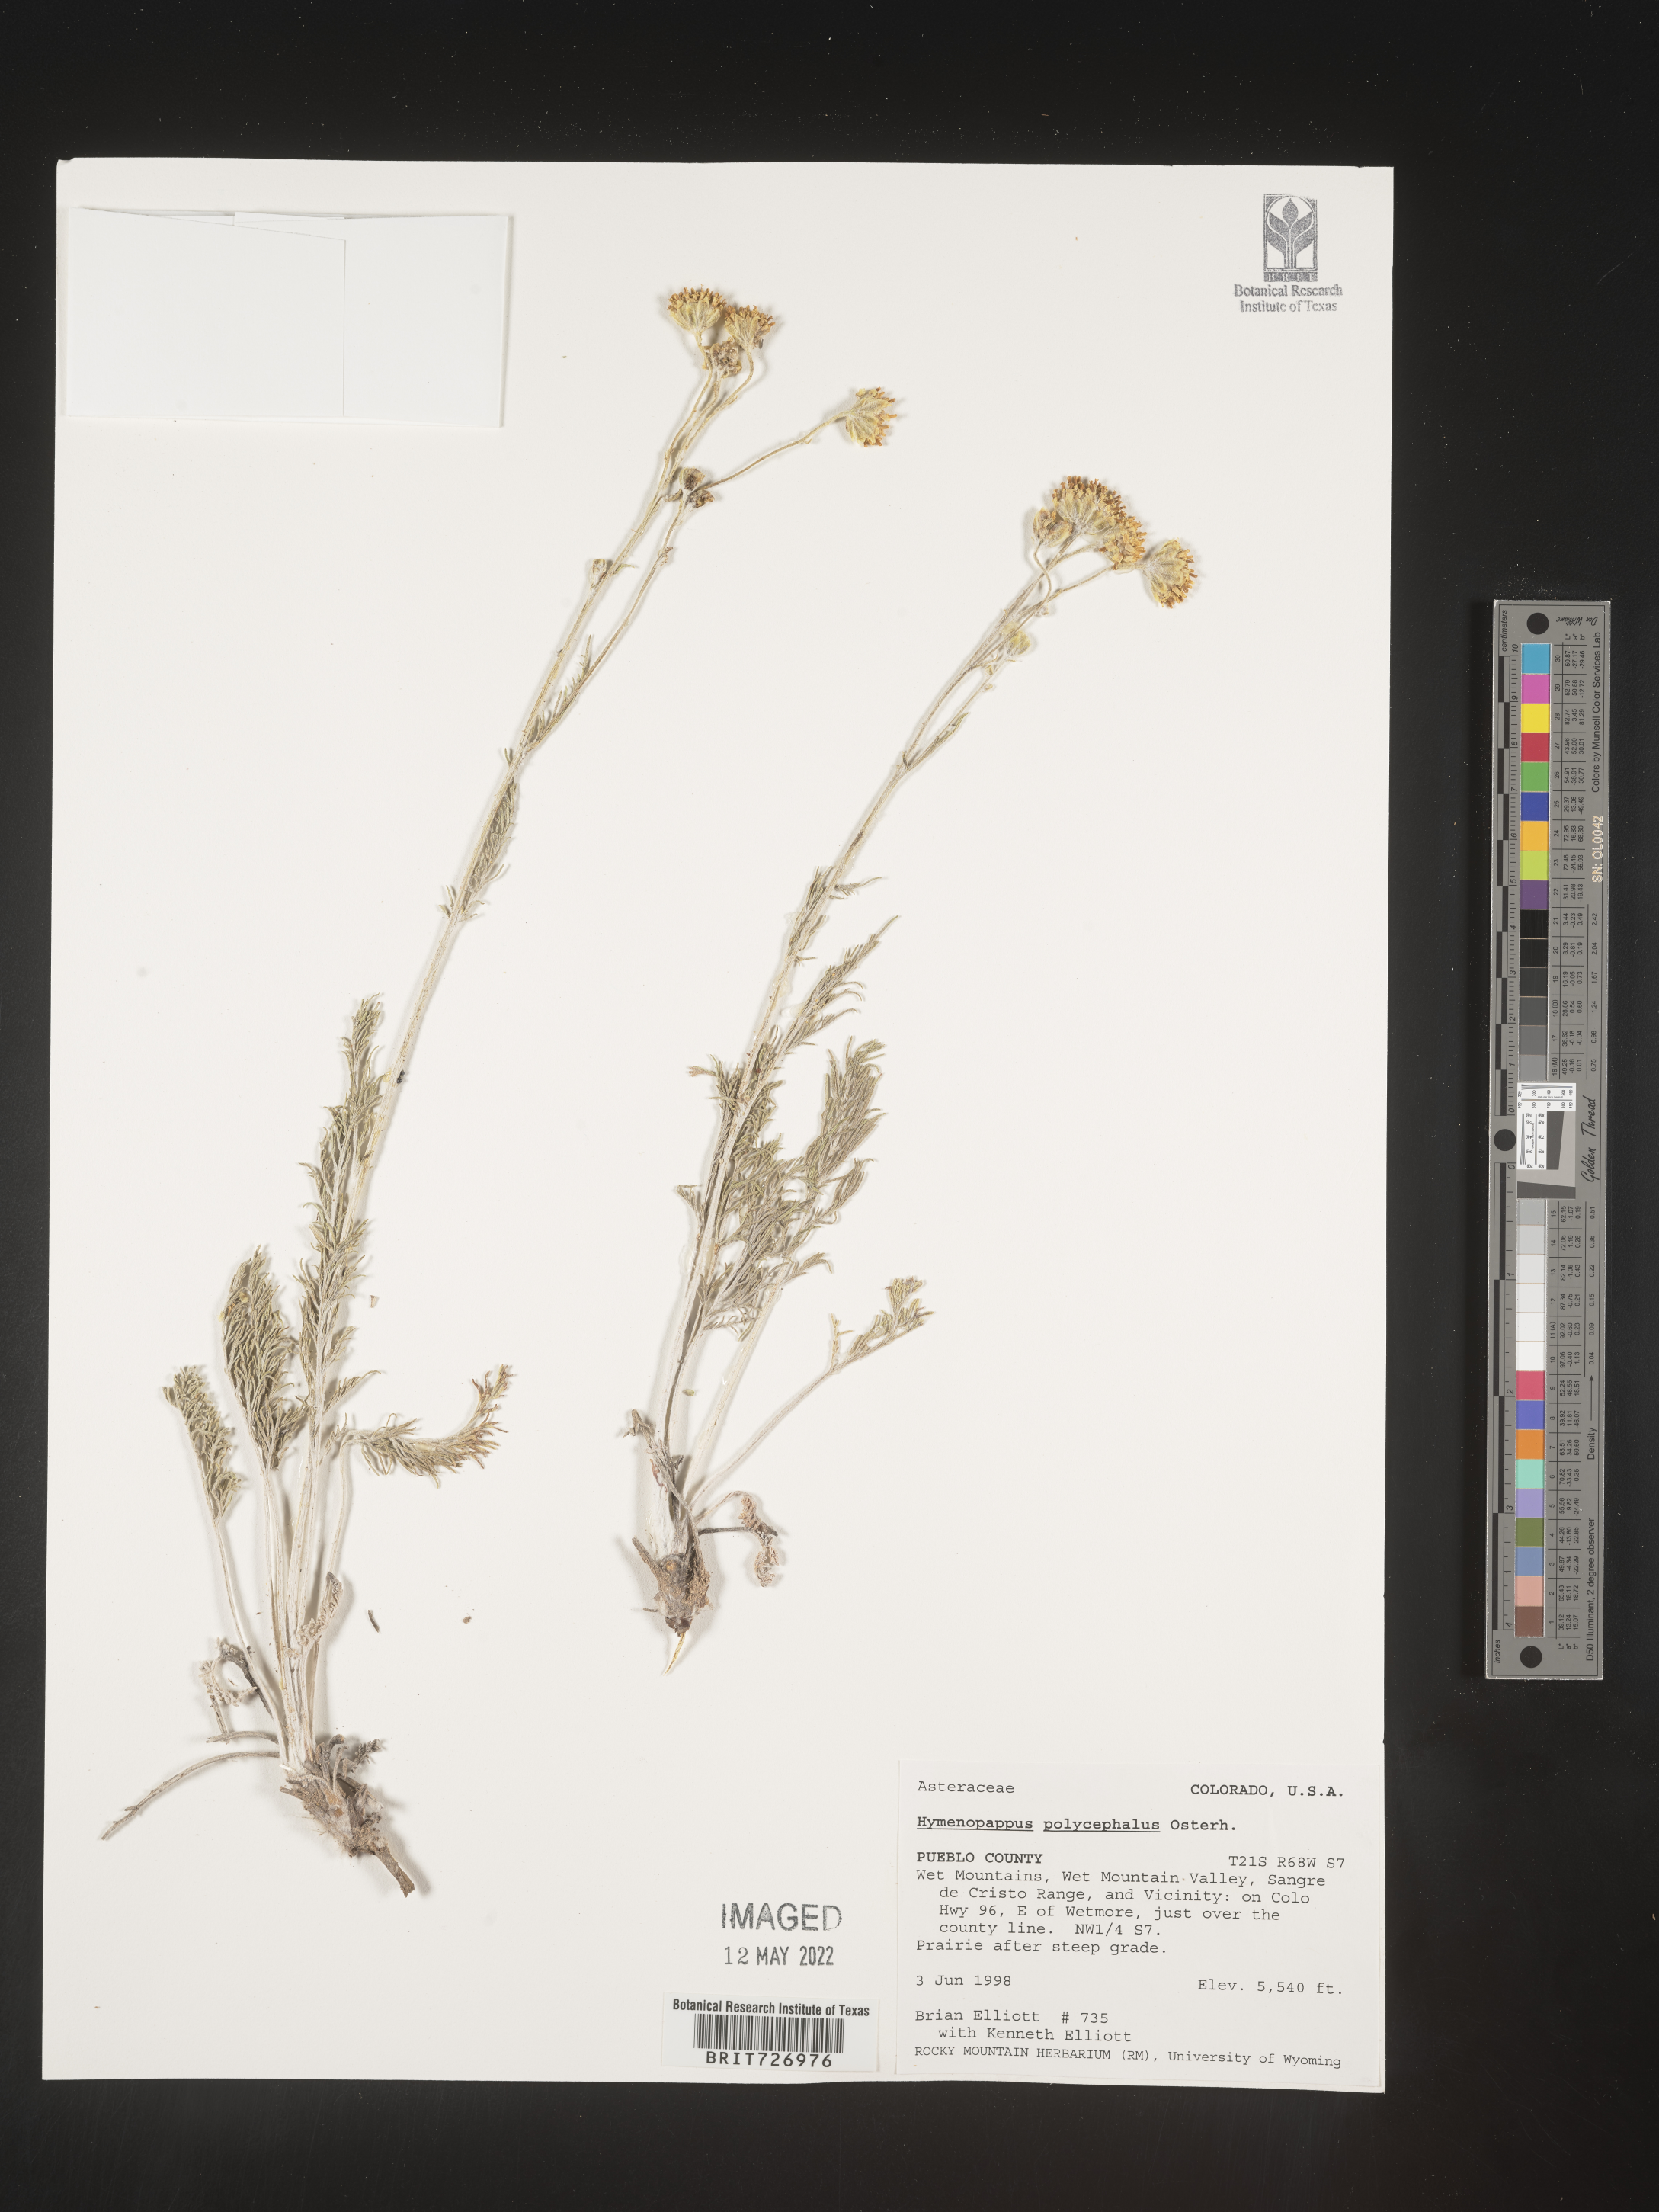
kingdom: Plantae
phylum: Tracheophyta
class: Magnoliopsida
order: Asterales
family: Asteraceae
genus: Hymenopappus
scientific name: Hymenopappus filifolius
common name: Columbia cutleaf
